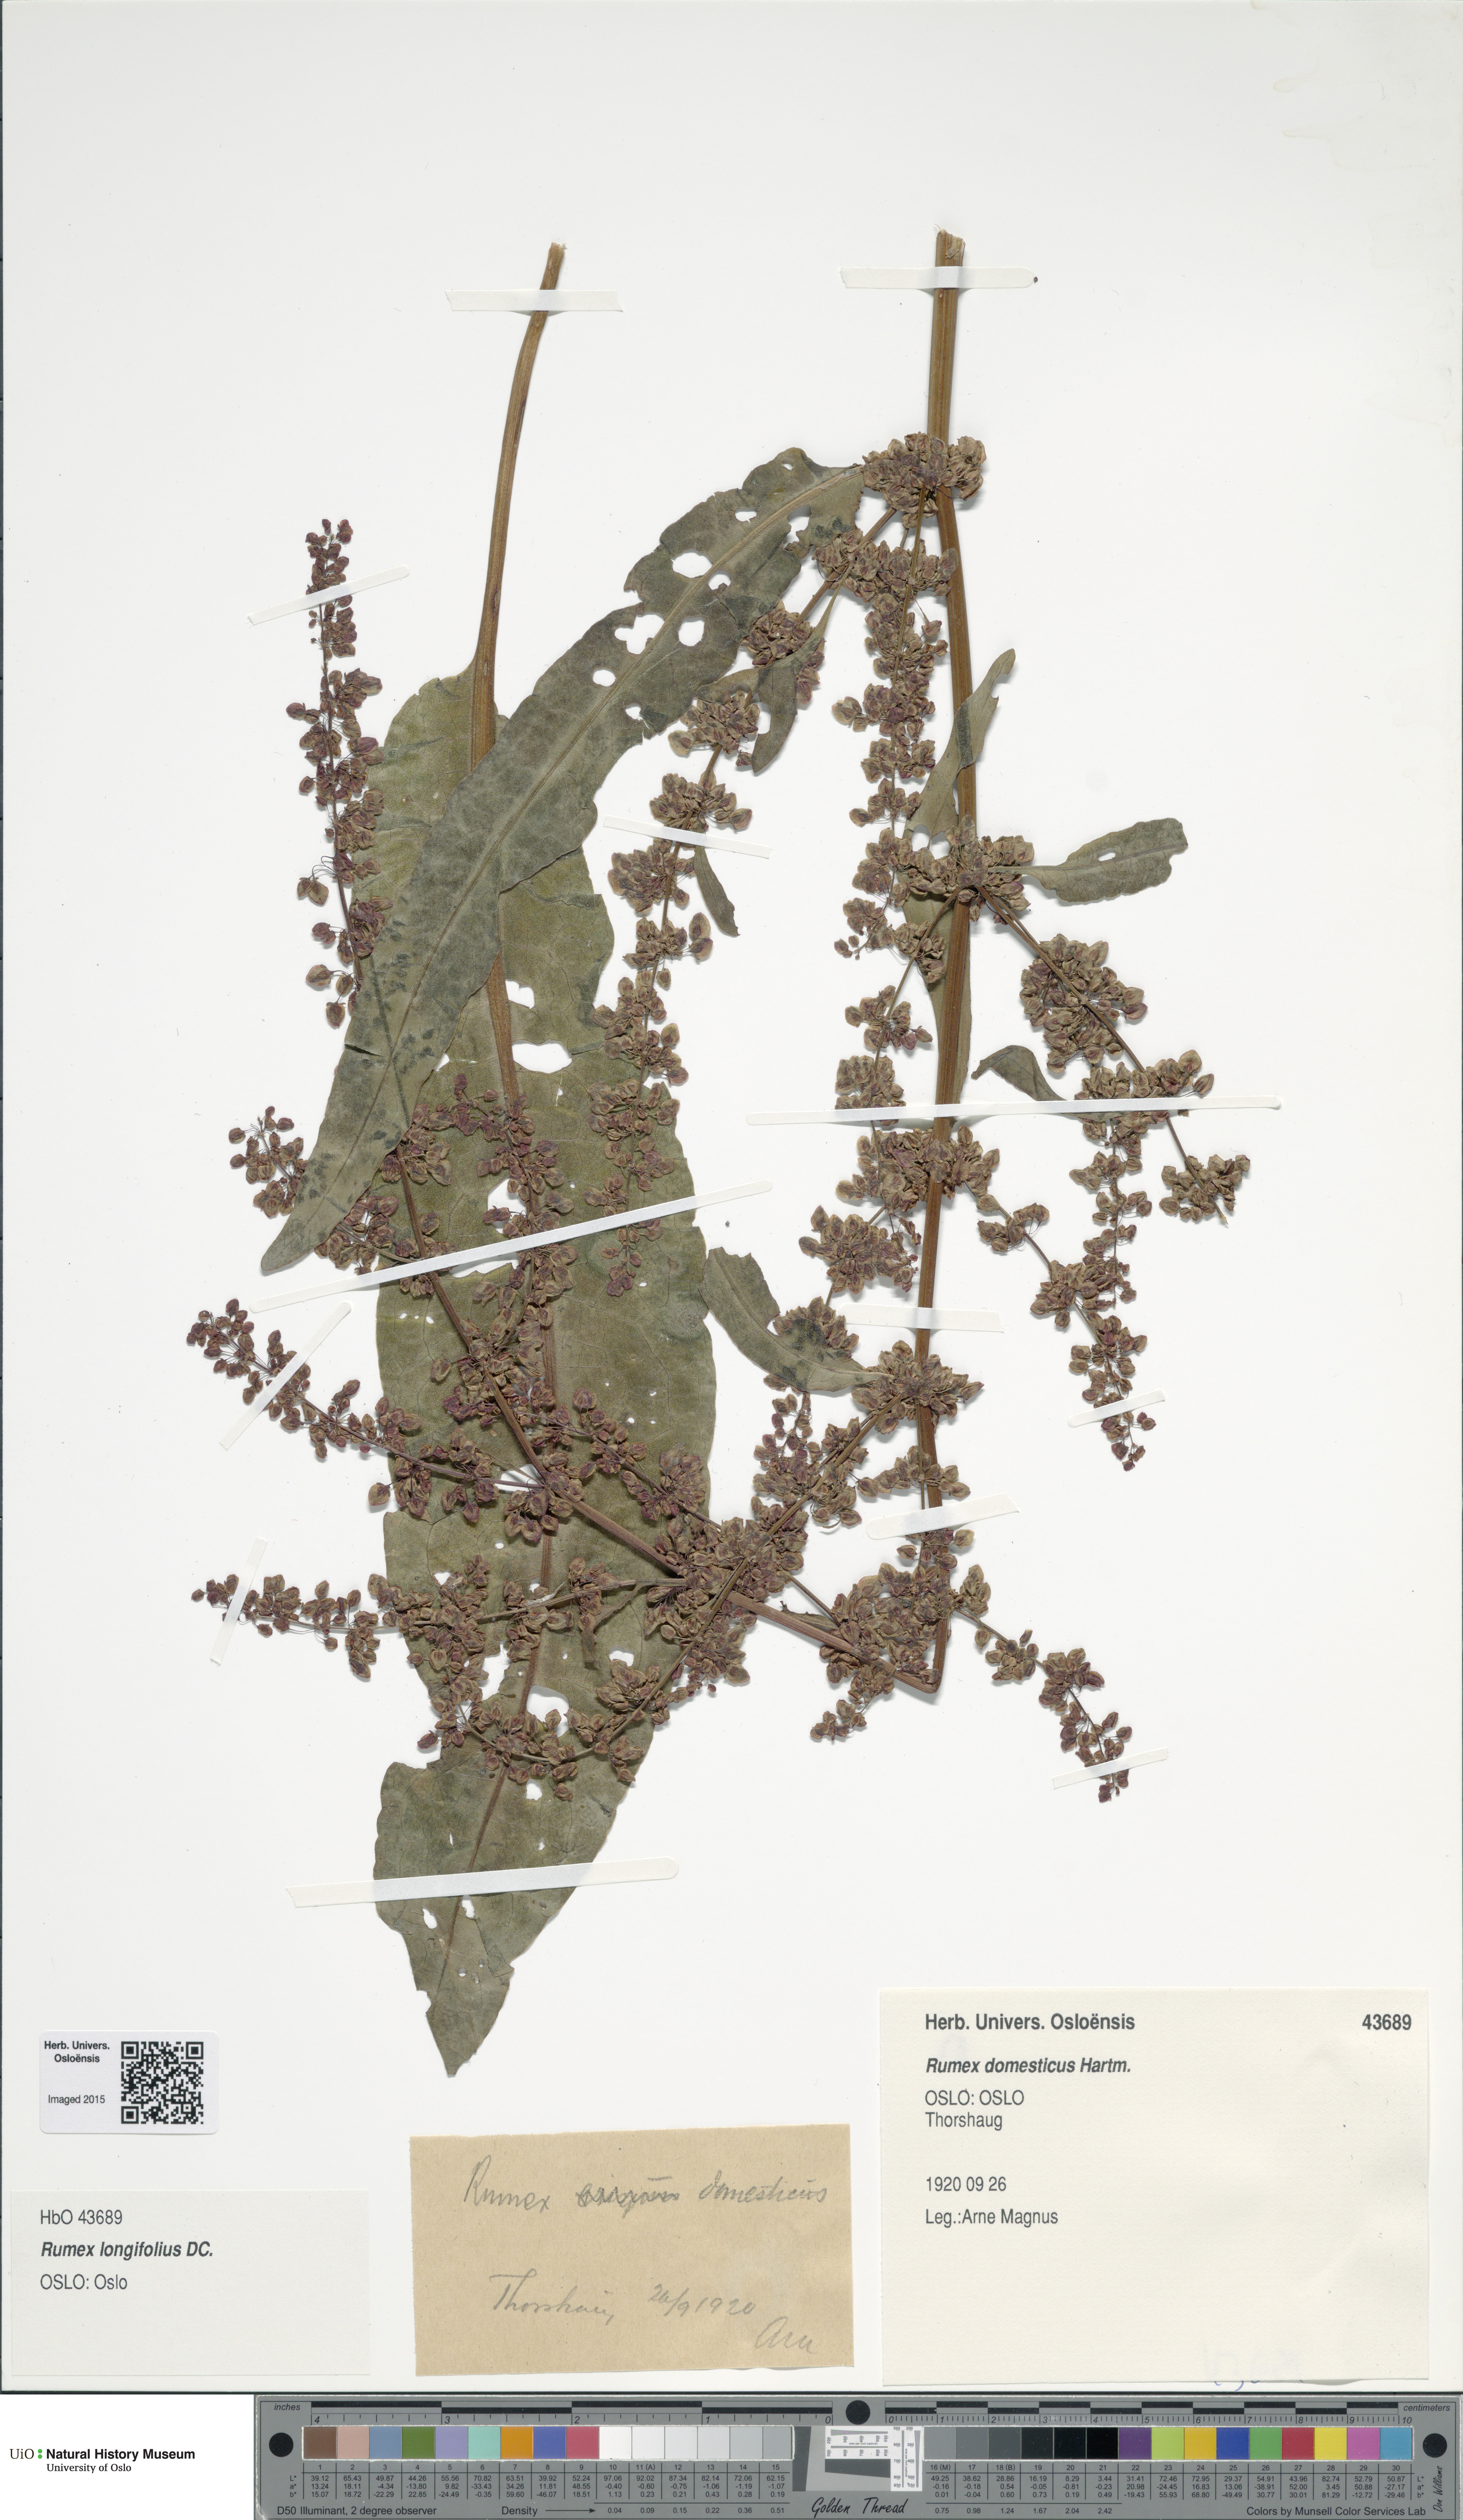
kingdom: Plantae
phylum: Tracheophyta
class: Magnoliopsida
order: Caryophyllales
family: Polygonaceae
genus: Rumex
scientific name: Rumex longifolius
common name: Dooryard dock
